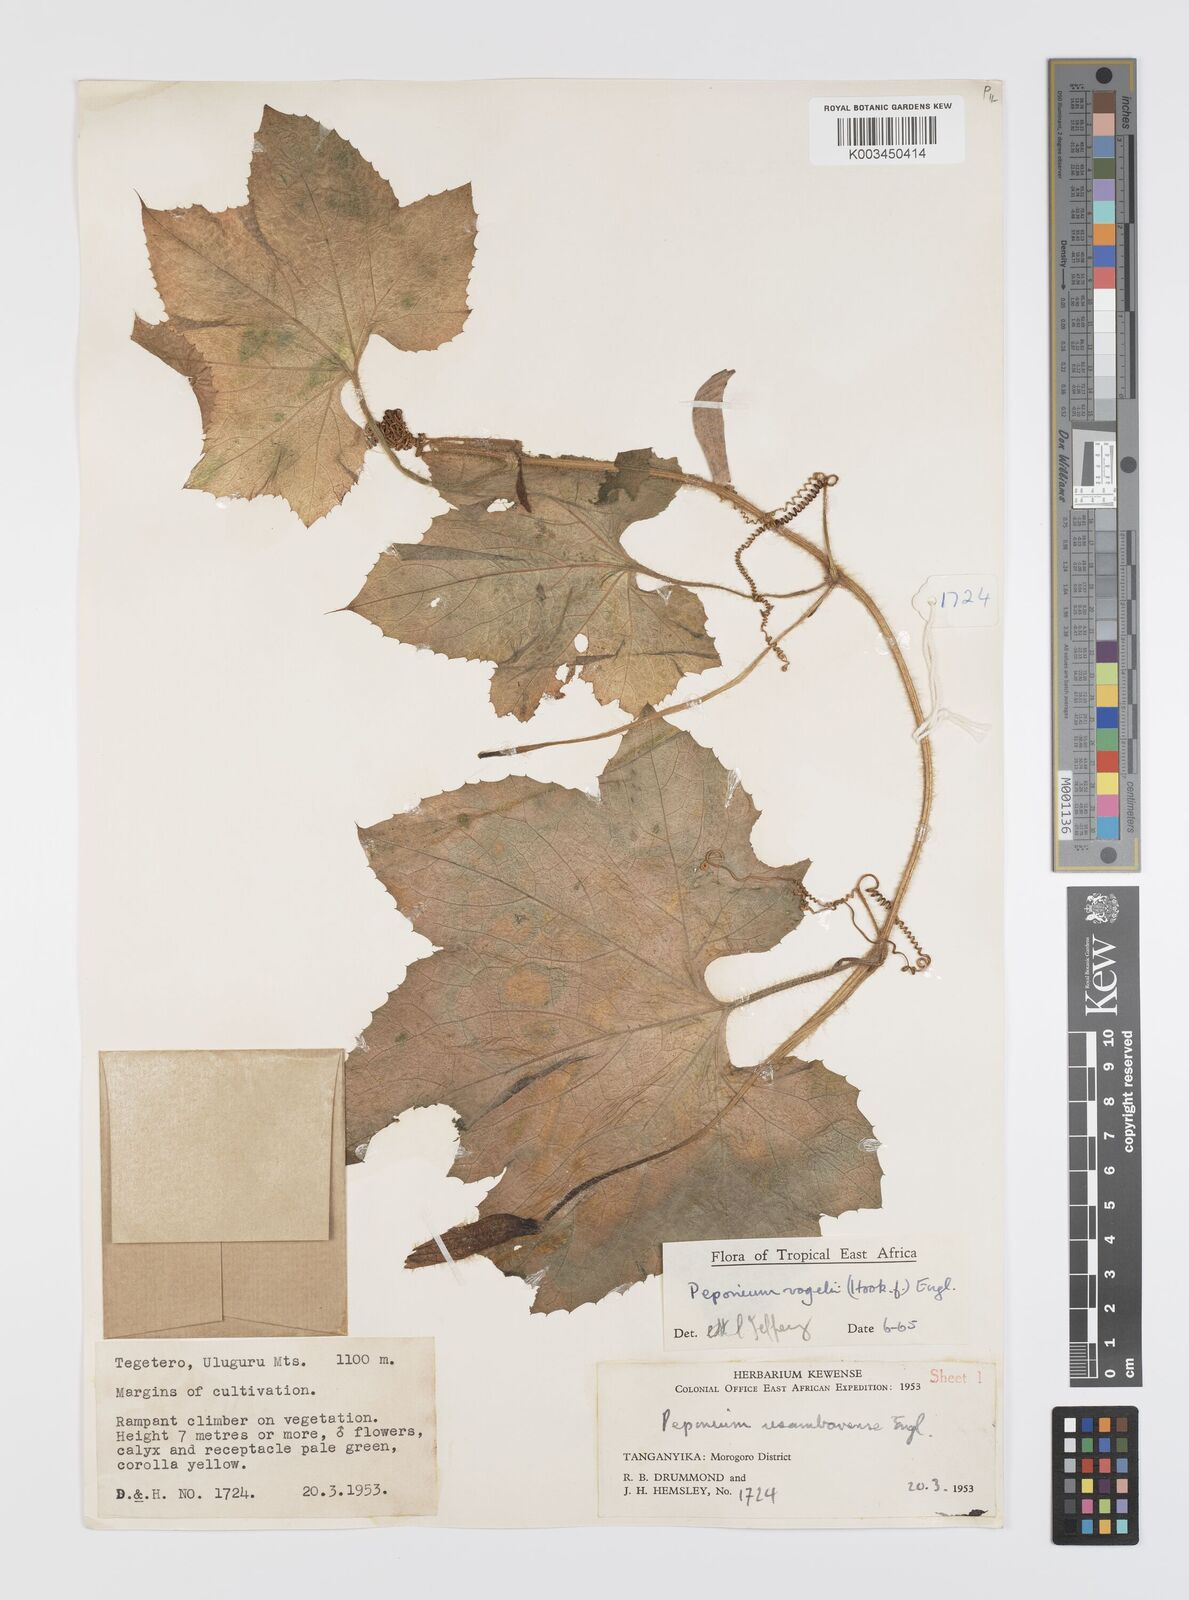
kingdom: Plantae
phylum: Tracheophyta
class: Magnoliopsida
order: Cucurbitales
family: Cucurbitaceae
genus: Peponium
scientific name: Peponium vogelii
